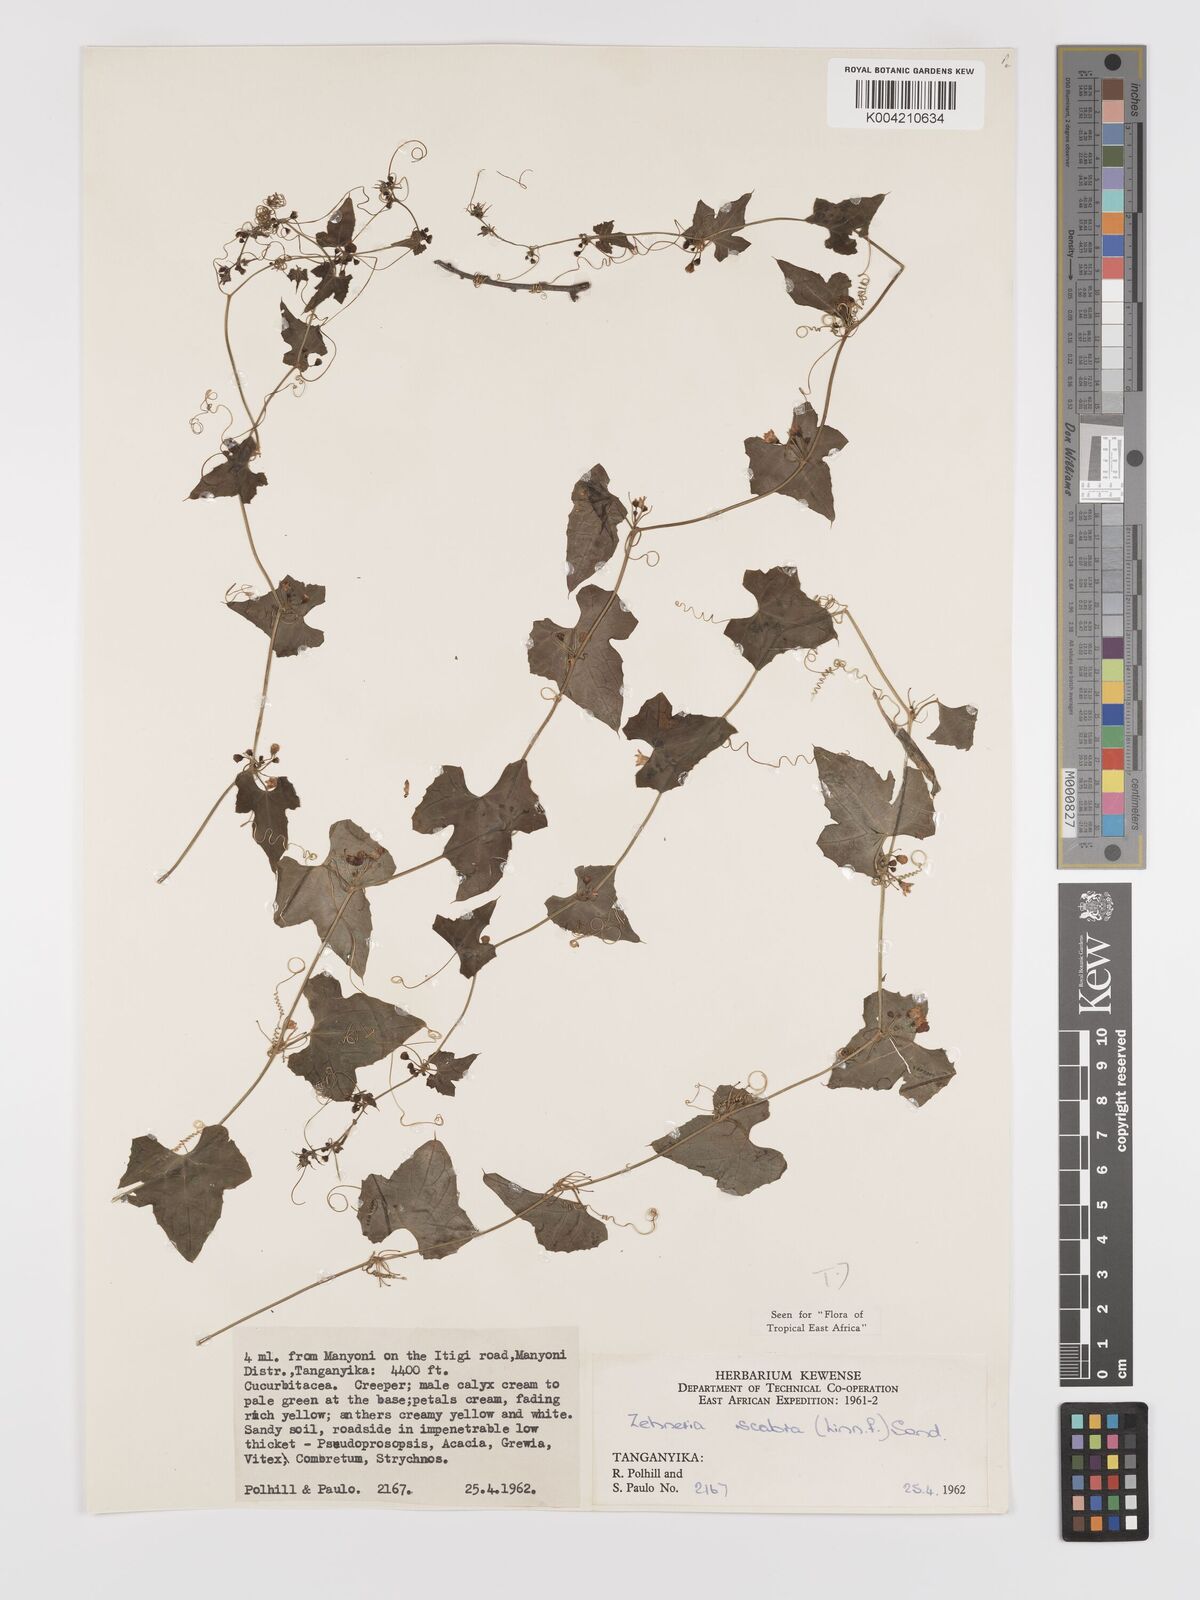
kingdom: Plantae
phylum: Tracheophyta
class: Magnoliopsida
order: Cucurbitales
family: Cucurbitaceae
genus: Zehneria
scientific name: Zehneria scabra
